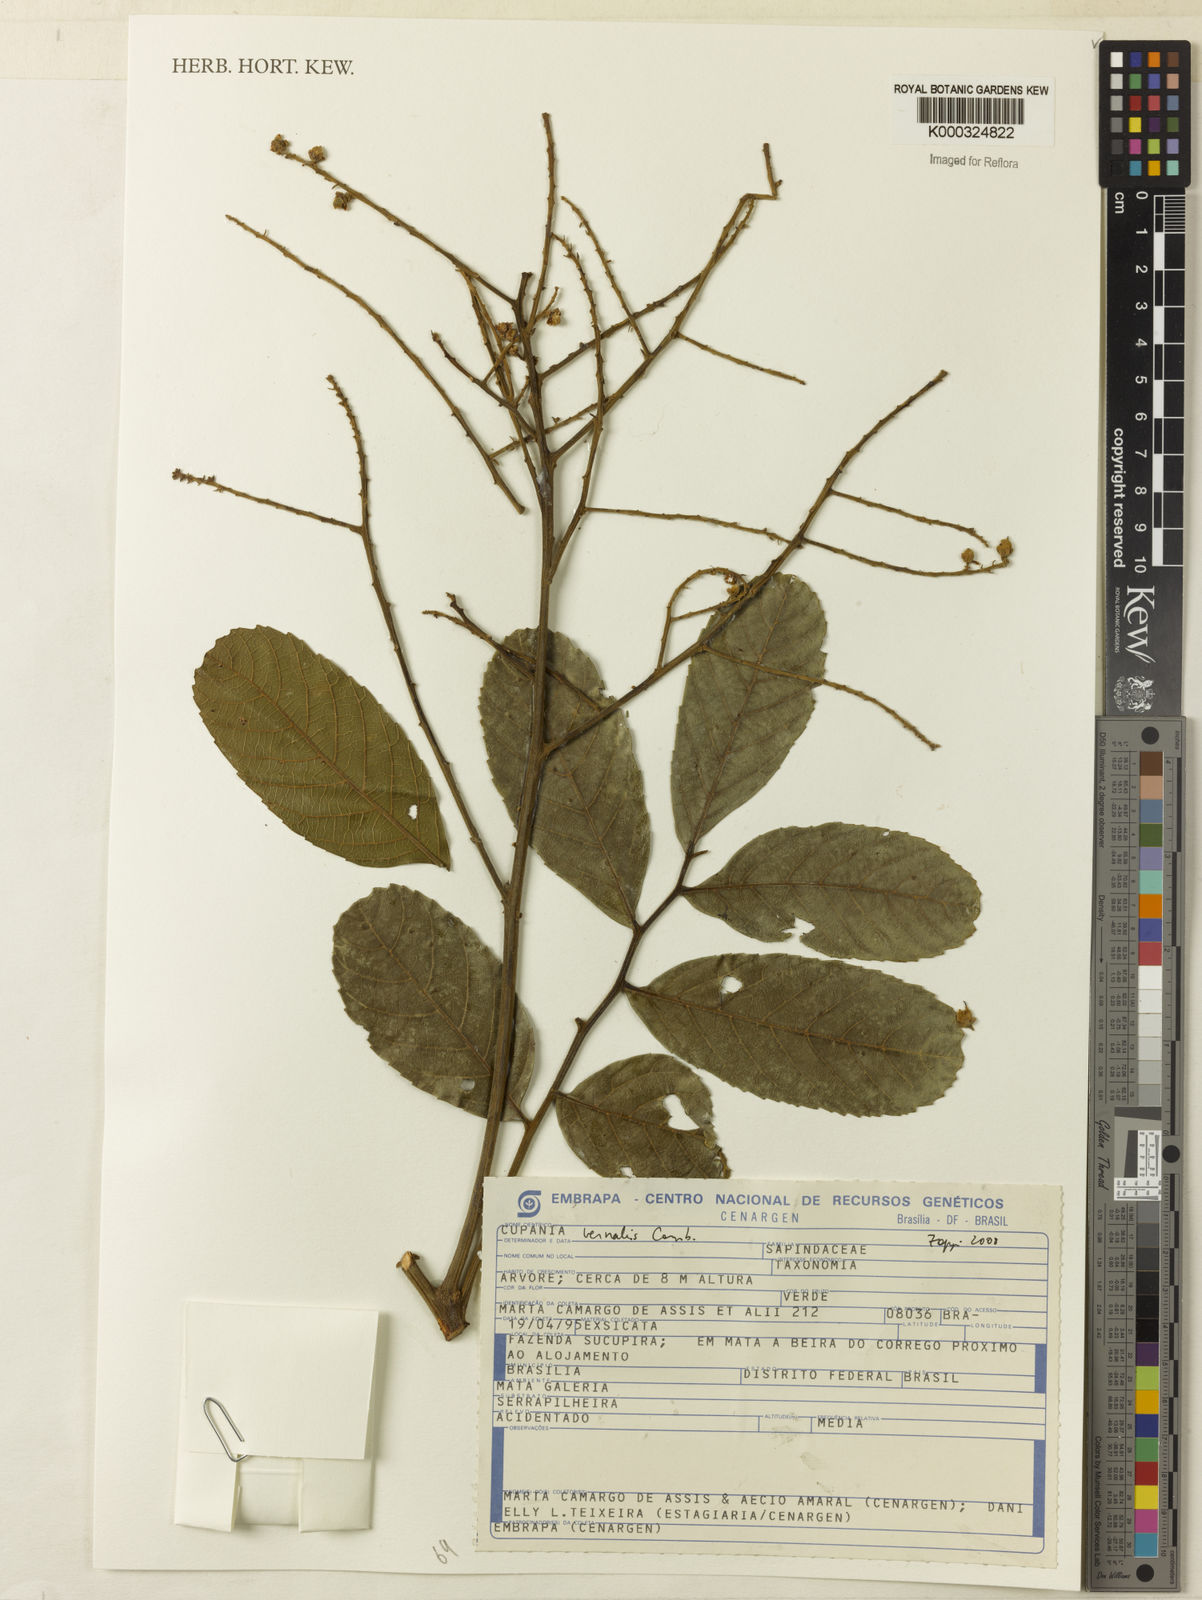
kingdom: Plantae
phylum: Tracheophyta
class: Magnoliopsida
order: Sapindales
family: Sapindaceae
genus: Cupania
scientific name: Cupania vernalis
